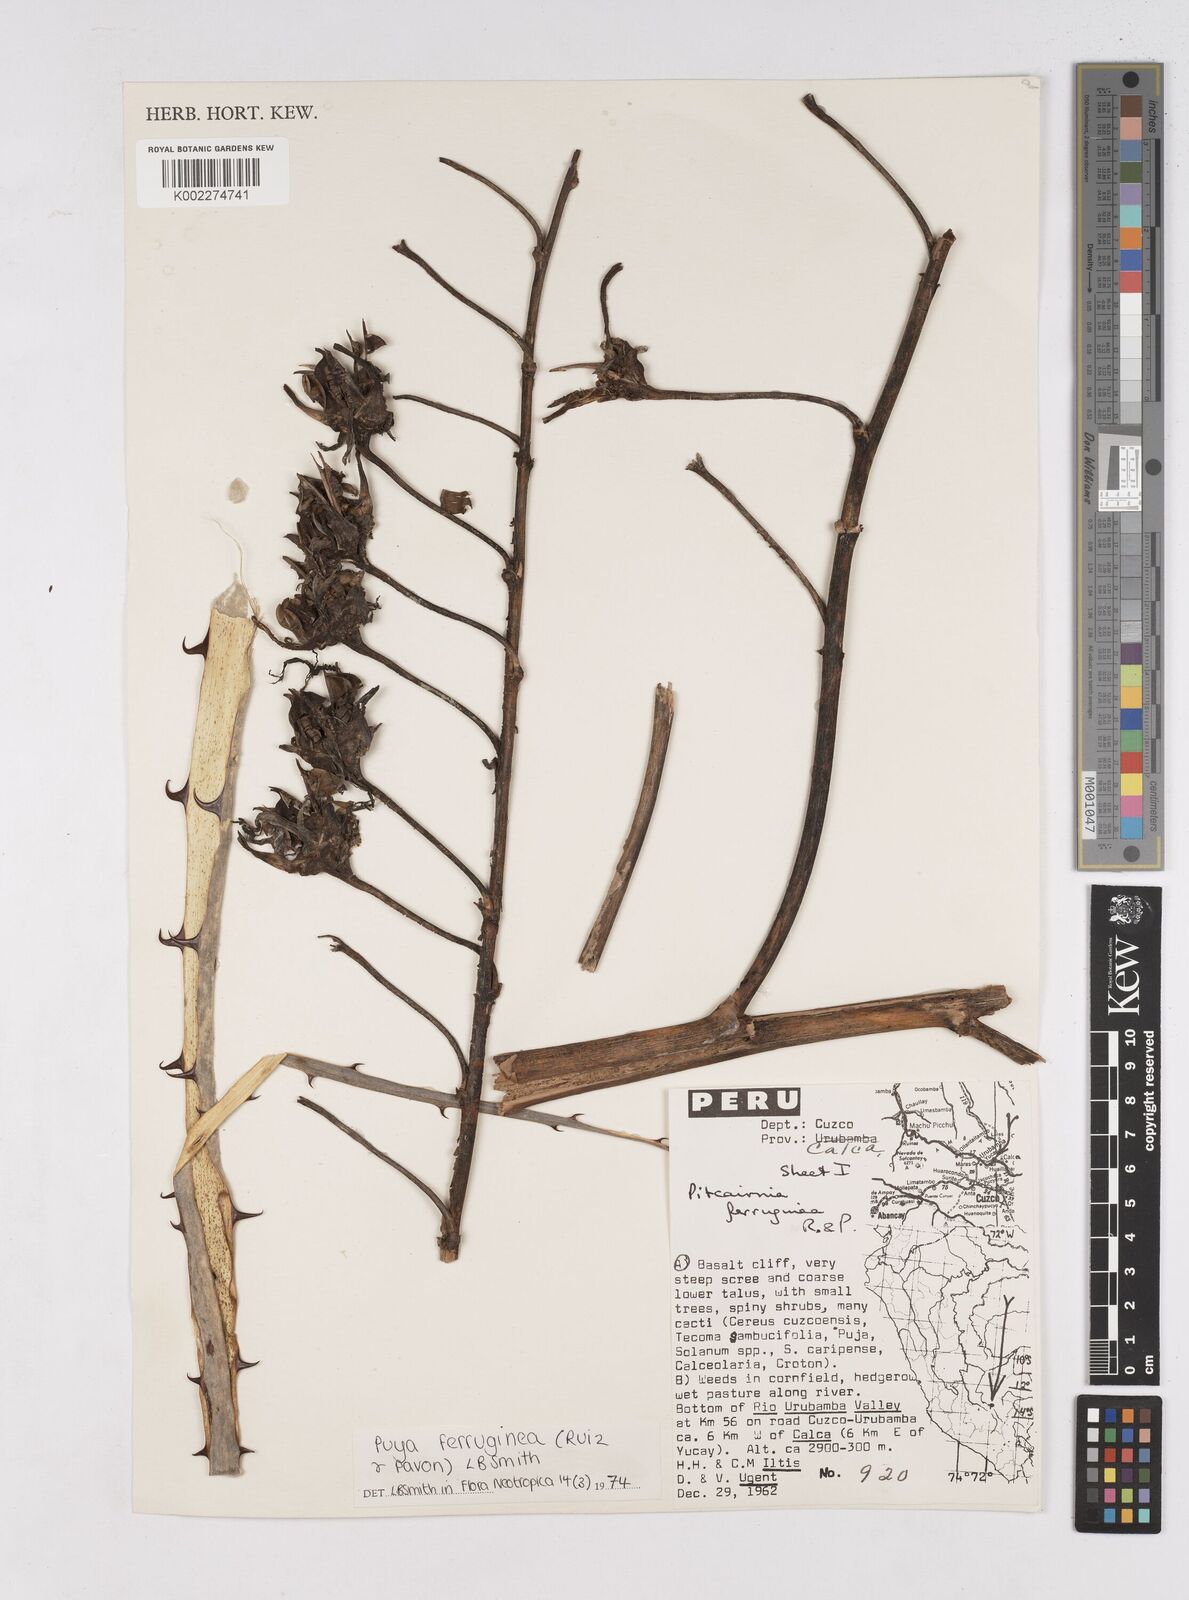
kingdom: Plantae
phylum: Tracheophyta
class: Liliopsida
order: Poales
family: Bromeliaceae
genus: Puya
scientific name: Puya ferruginea
